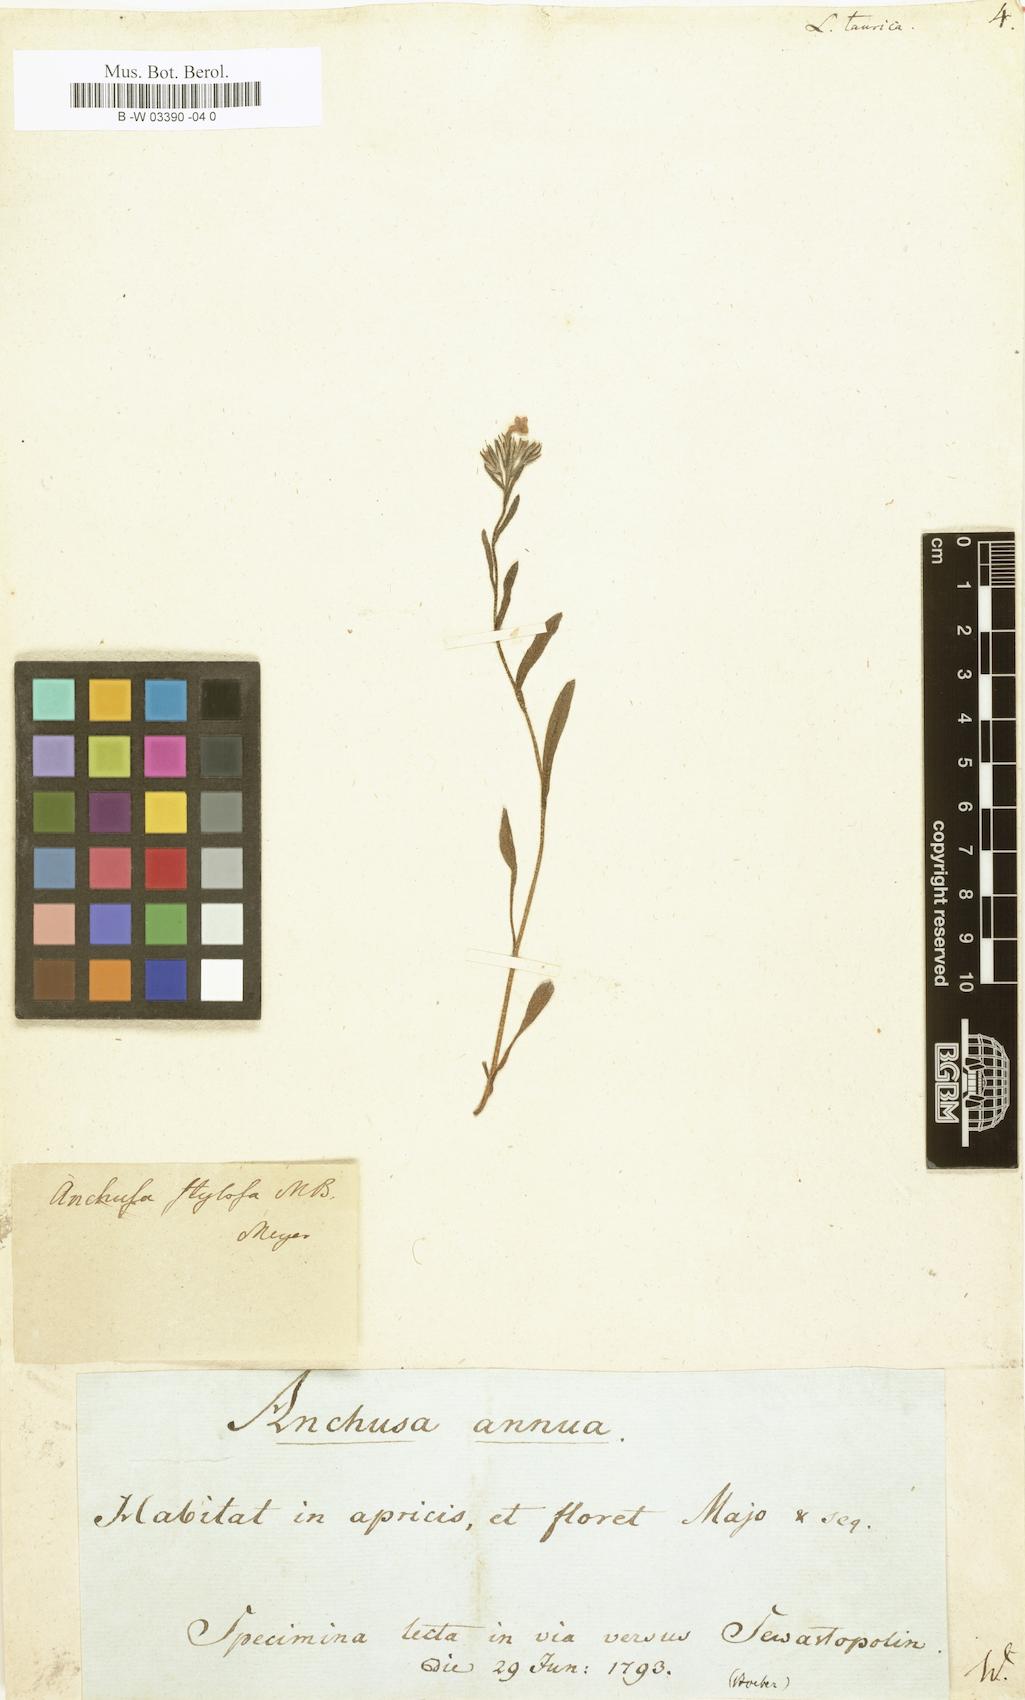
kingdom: Plantae
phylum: Tracheophyta
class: Magnoliopsida
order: Boraginales
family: Boraginaceae
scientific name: Boraginaceae
